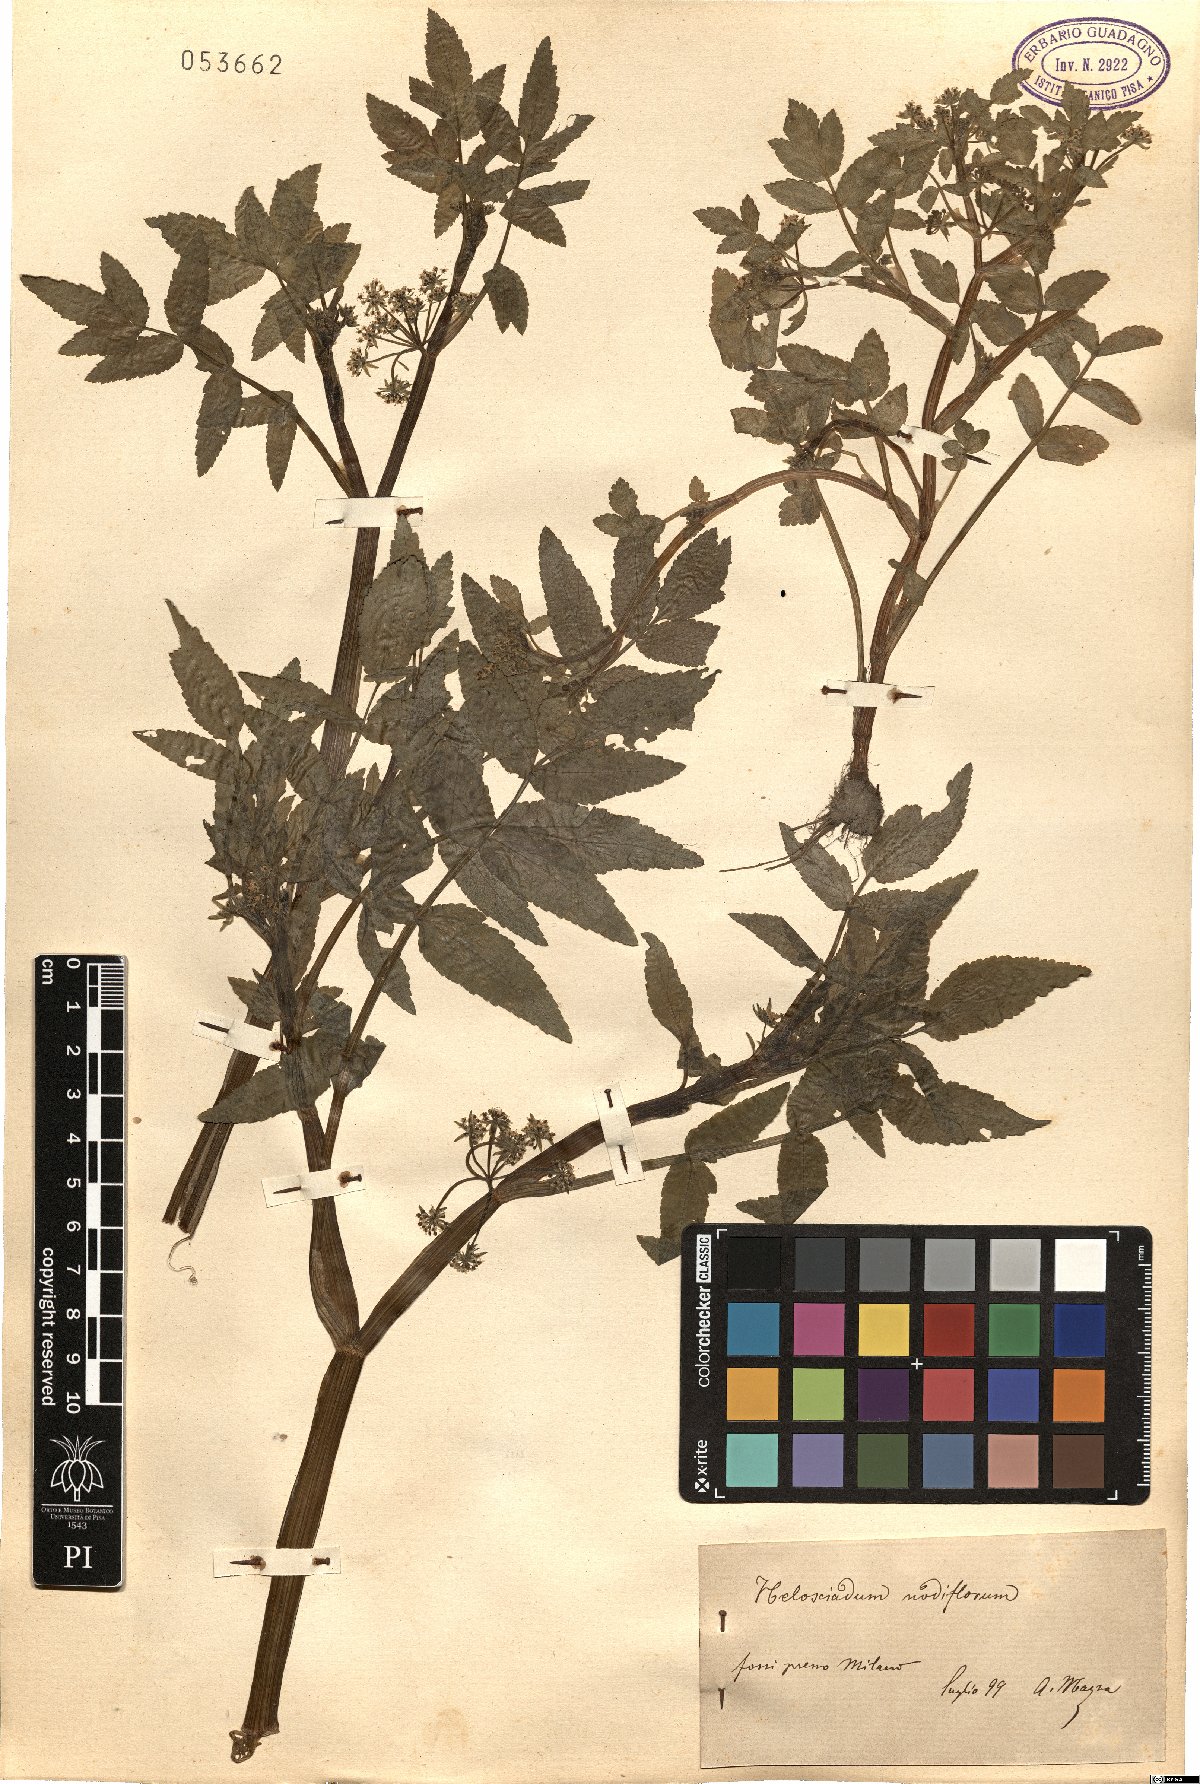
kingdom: Plantae
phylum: Tracheophyta
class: Magnoliopsida
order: Apiales
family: Apiaceae
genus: Helosciadium
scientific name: Helosciadium nodiflorum
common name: Fool's-watercress
